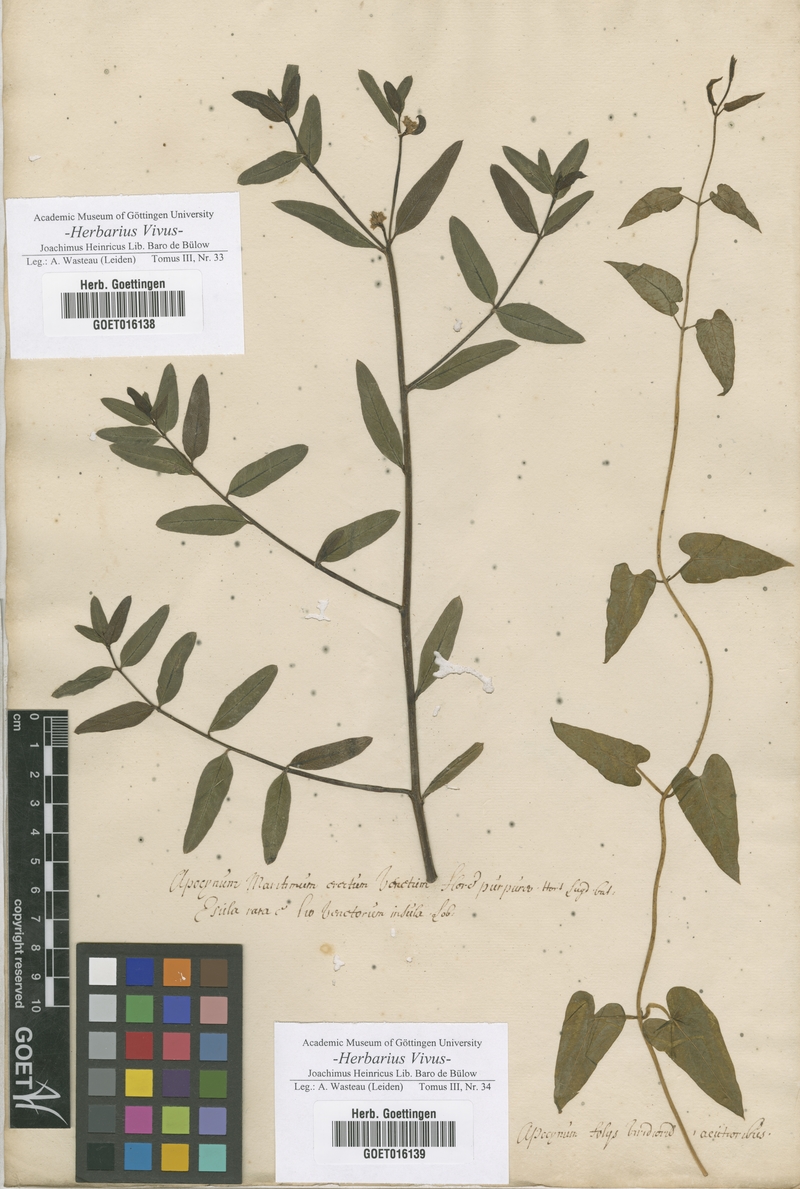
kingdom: Plantae
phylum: Tracheophyta
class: Magnoliopsida
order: Gentianales
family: Apocynaceae
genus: Poacynum
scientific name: Poacynum venetum
